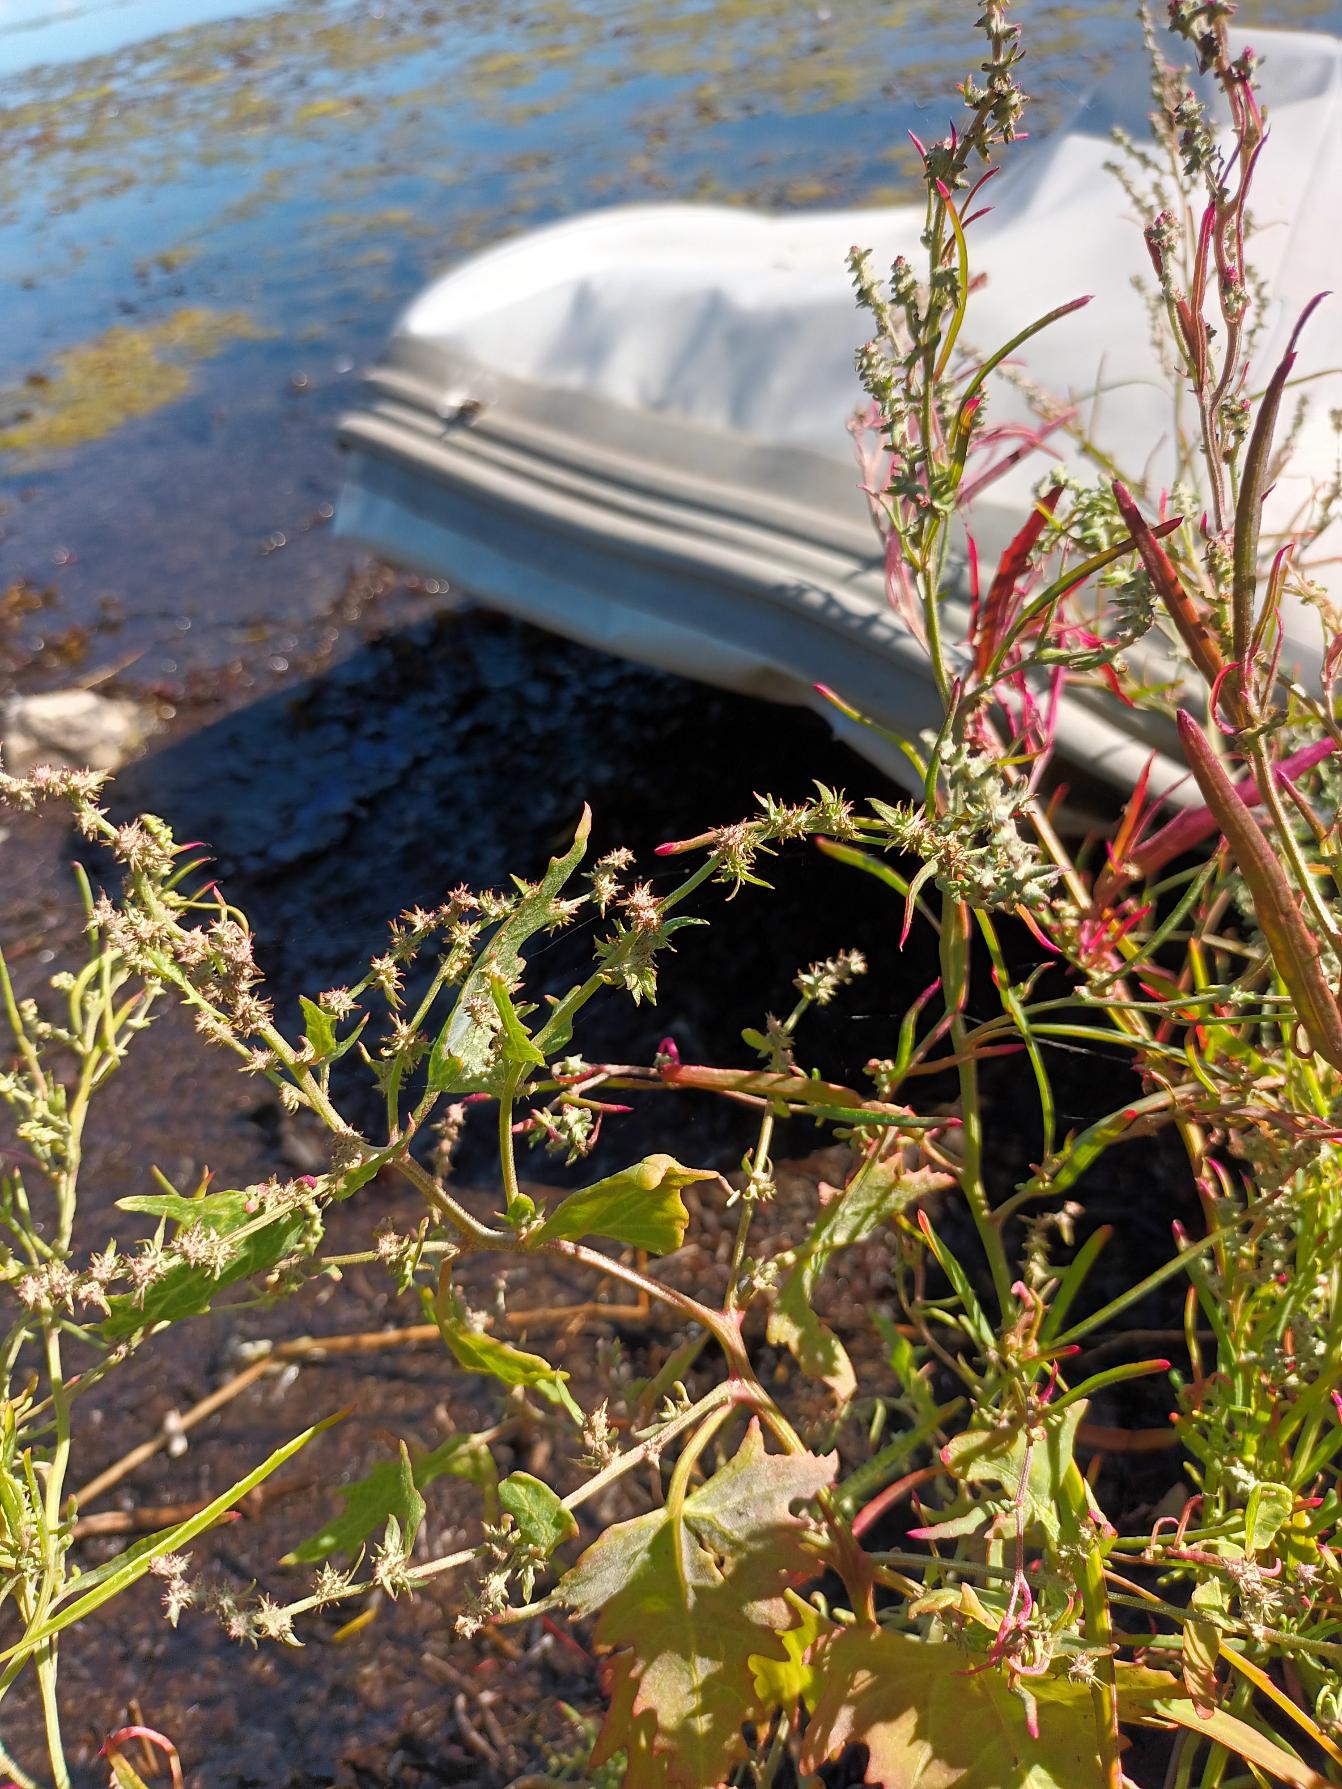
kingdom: Plantae
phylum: Tracheophyta
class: Magnoliopsida
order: Caryophyllales
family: Amaranthaceae
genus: Atriplex
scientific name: Atriplex calotheca
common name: Skønbægret mælde
